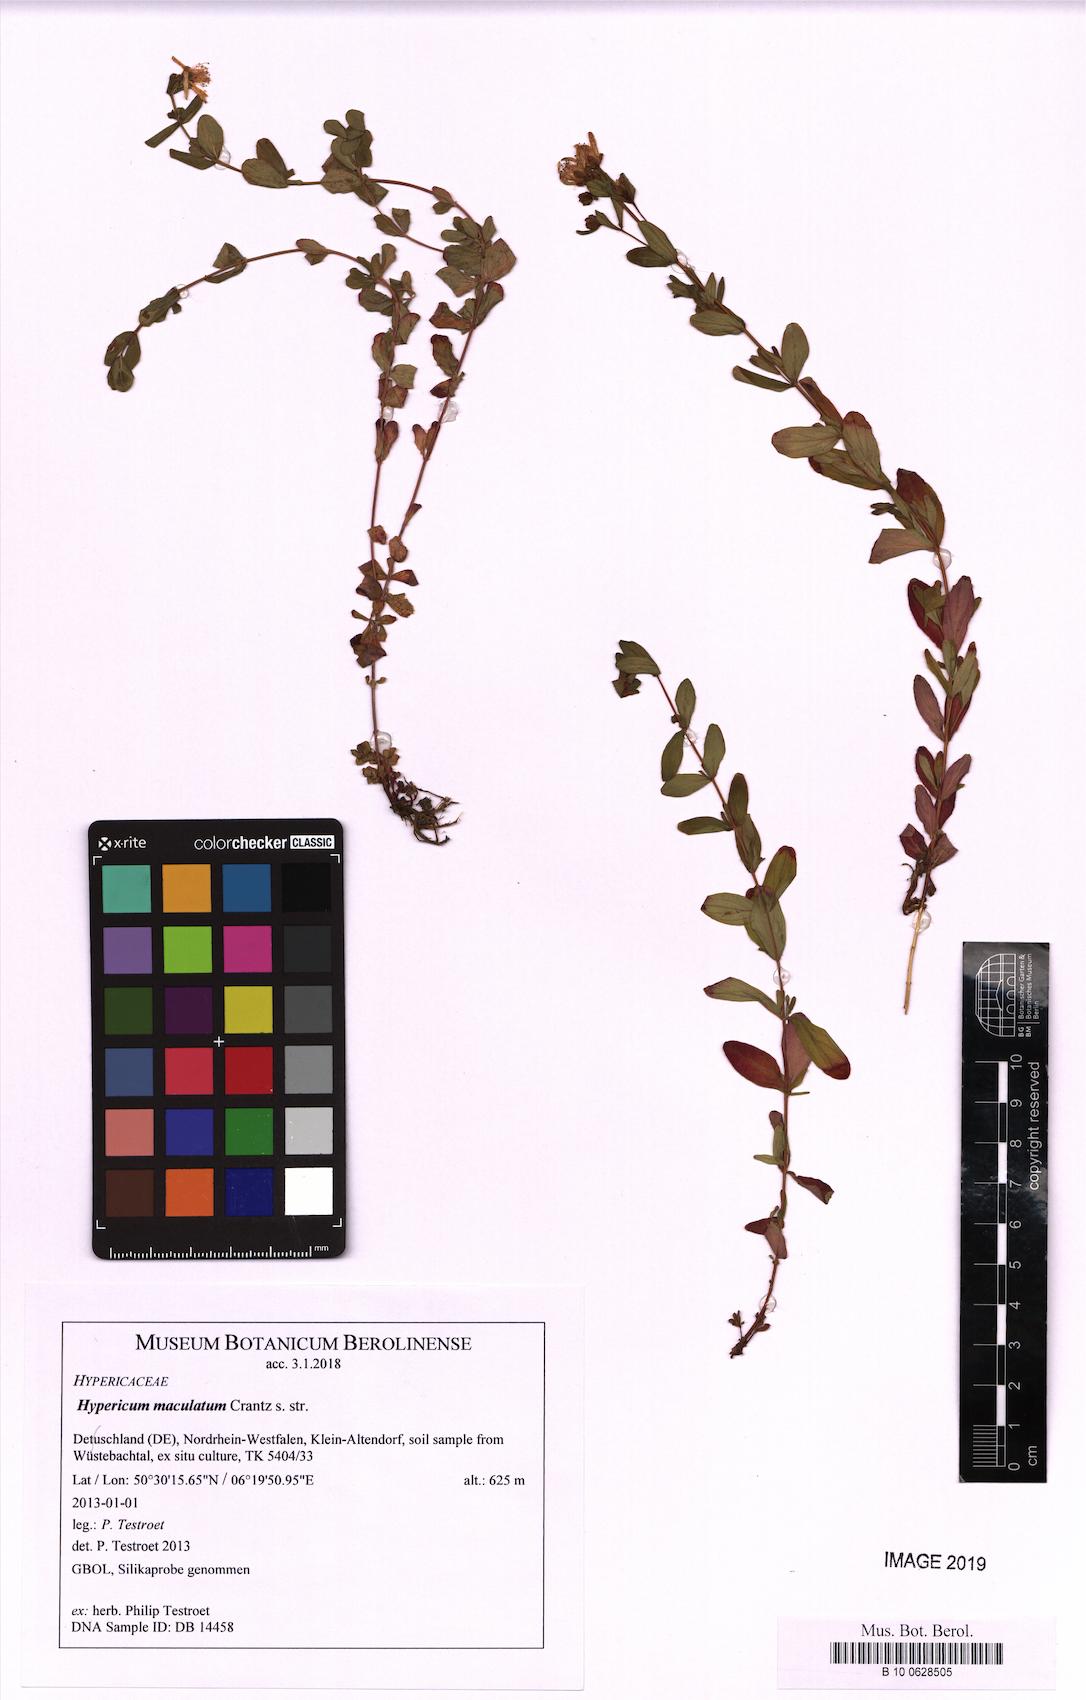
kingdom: Plantae
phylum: Tracheophyta
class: Magnoliopsida
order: Malpighiales
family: Hypericaceae
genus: Hypericum
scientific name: Hypericum maculatum
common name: Imperforate st. john's-wort
